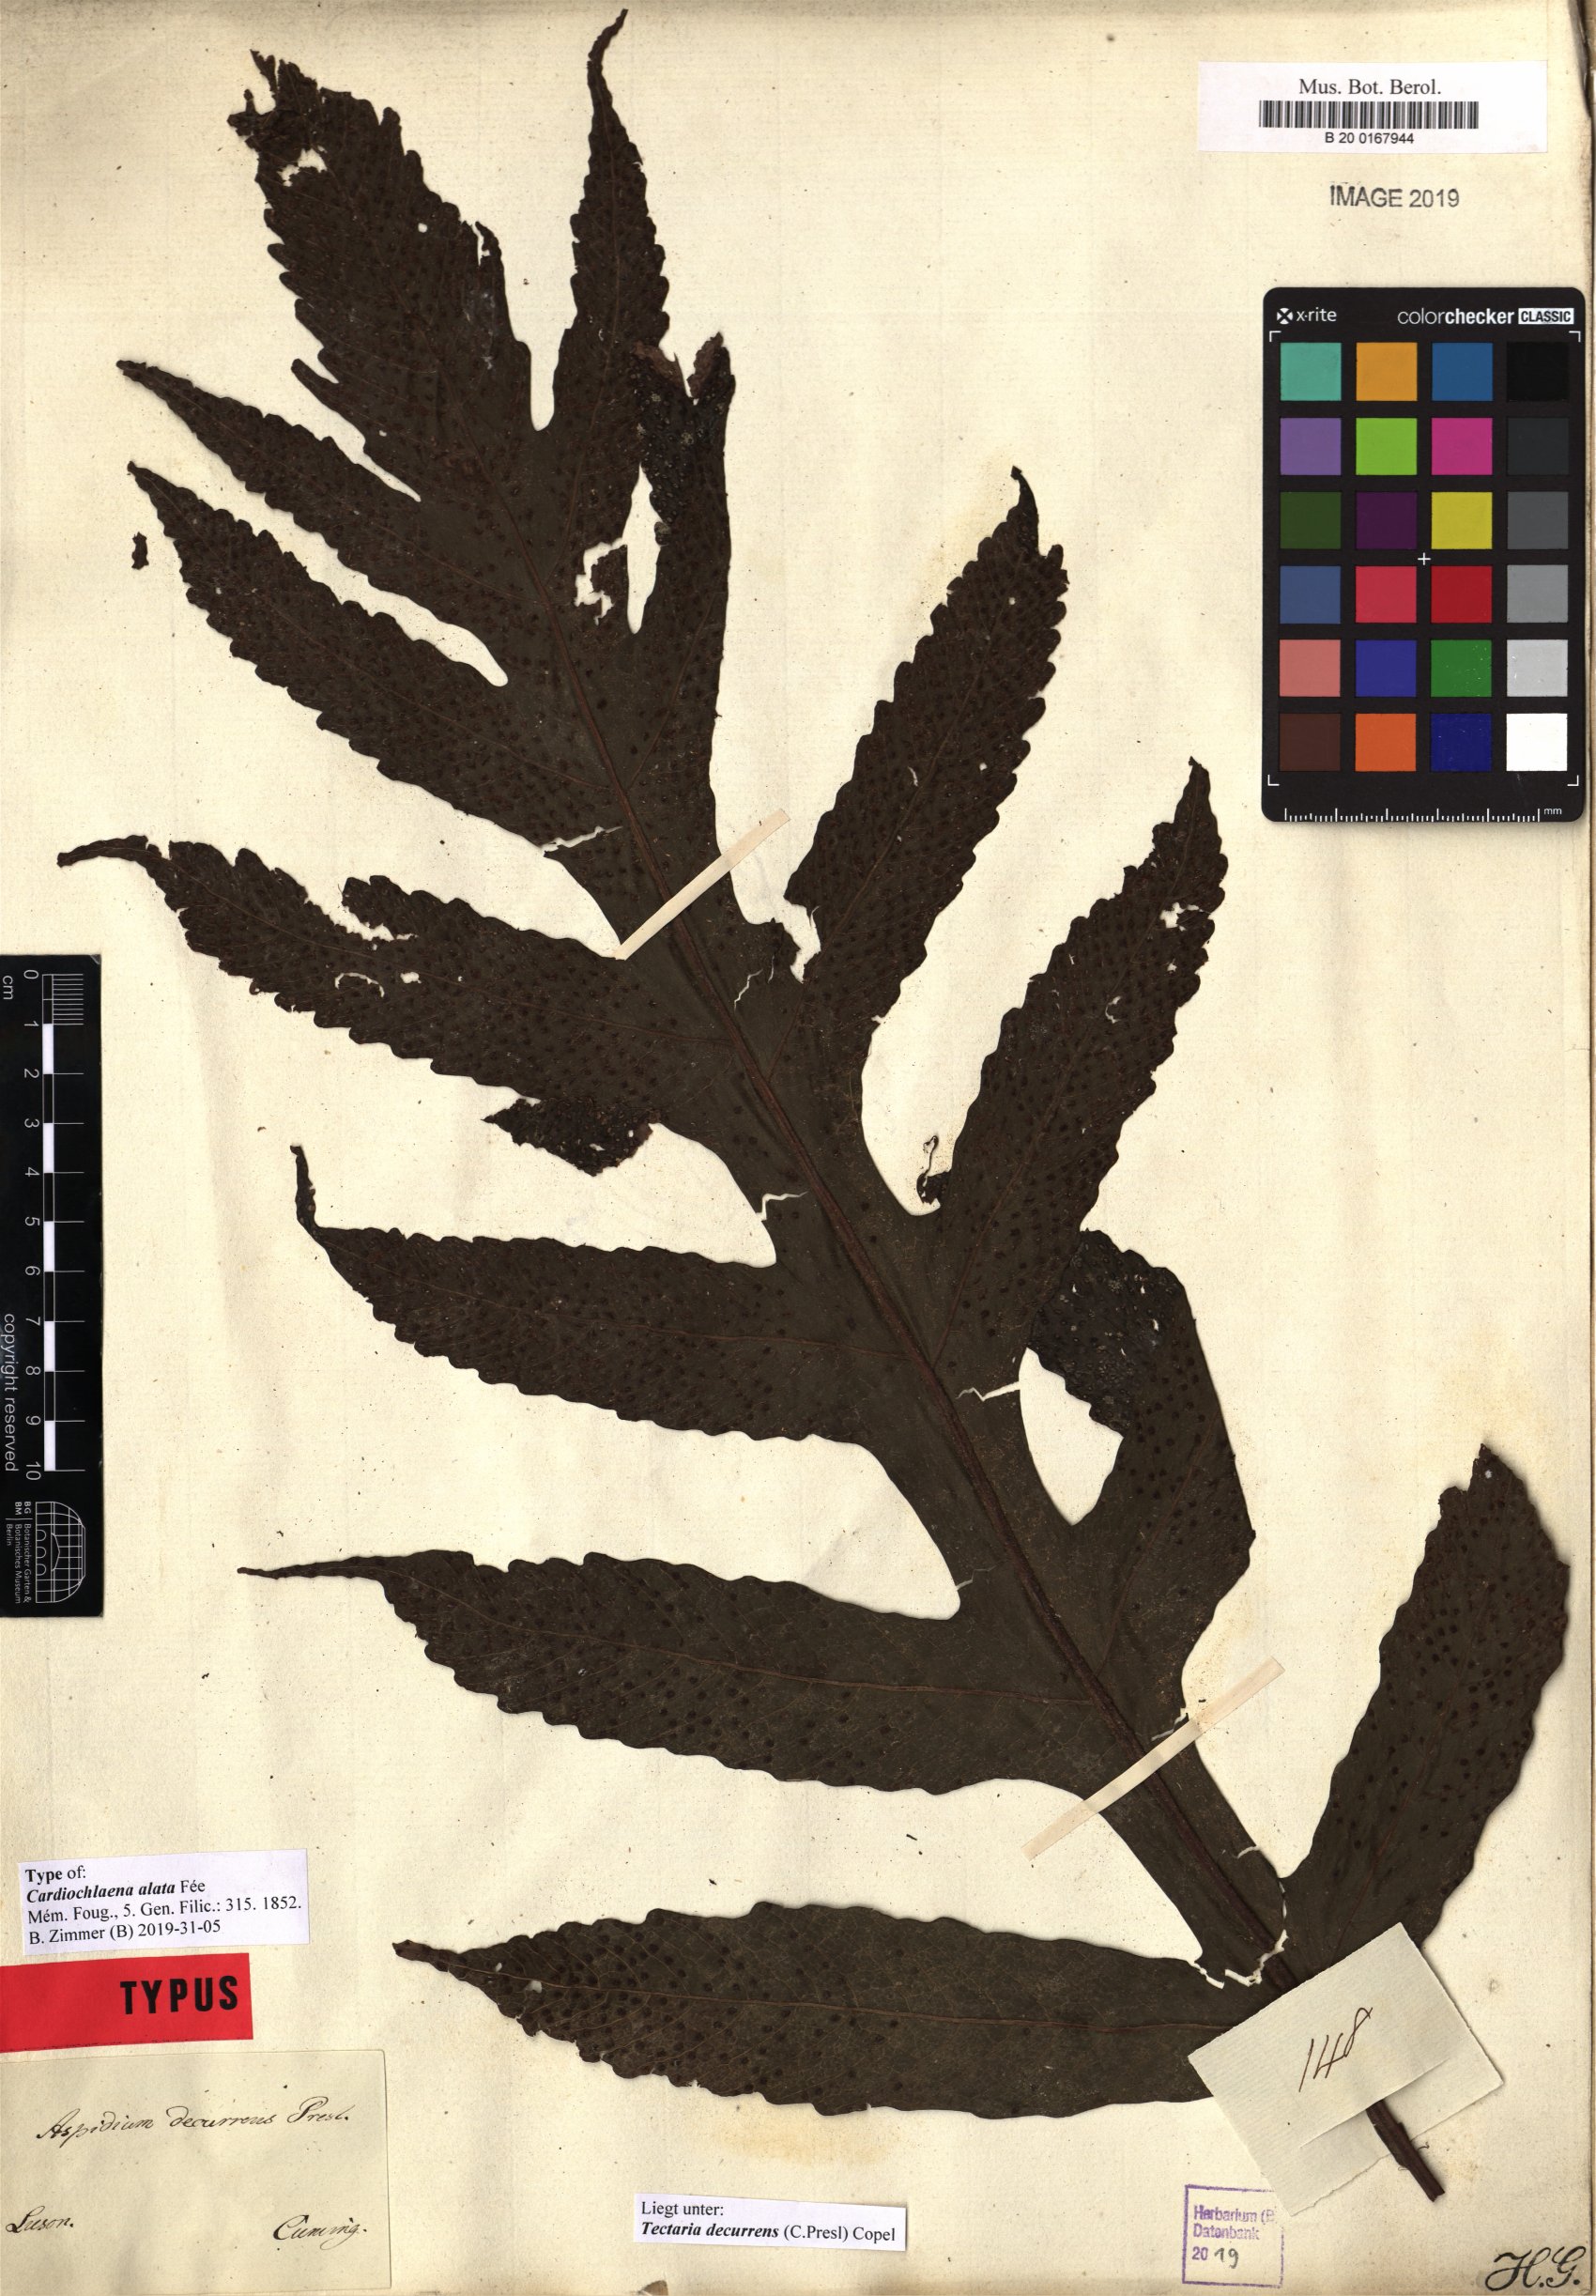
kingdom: Plantae
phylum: Tracheophyta
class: Polypodiopsida
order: Polypodiales
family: Tectariaceae
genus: Tectaria
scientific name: Tectaria decurrens
